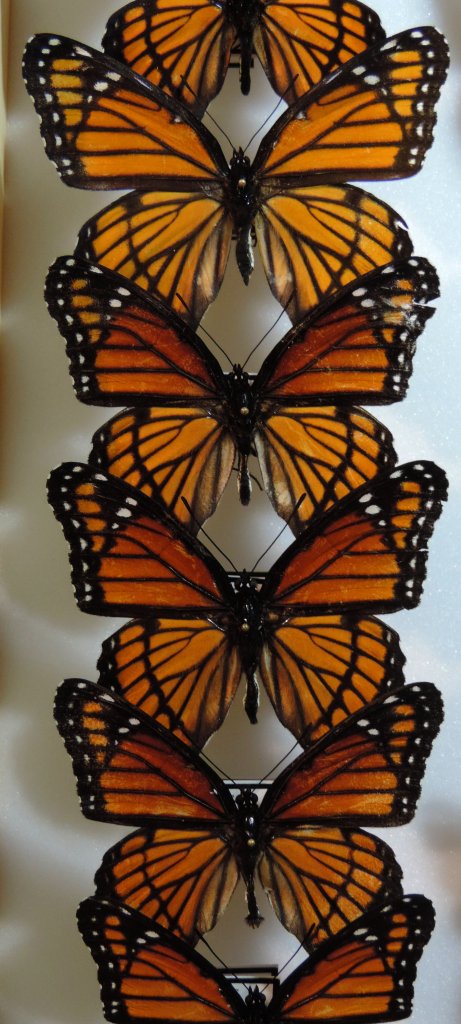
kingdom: Animalia
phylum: Arthropoda
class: Insecta
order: Lepidoptera
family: Nymphalidae
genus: Limenitis
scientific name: Limenitis archippus
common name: Viceroy
